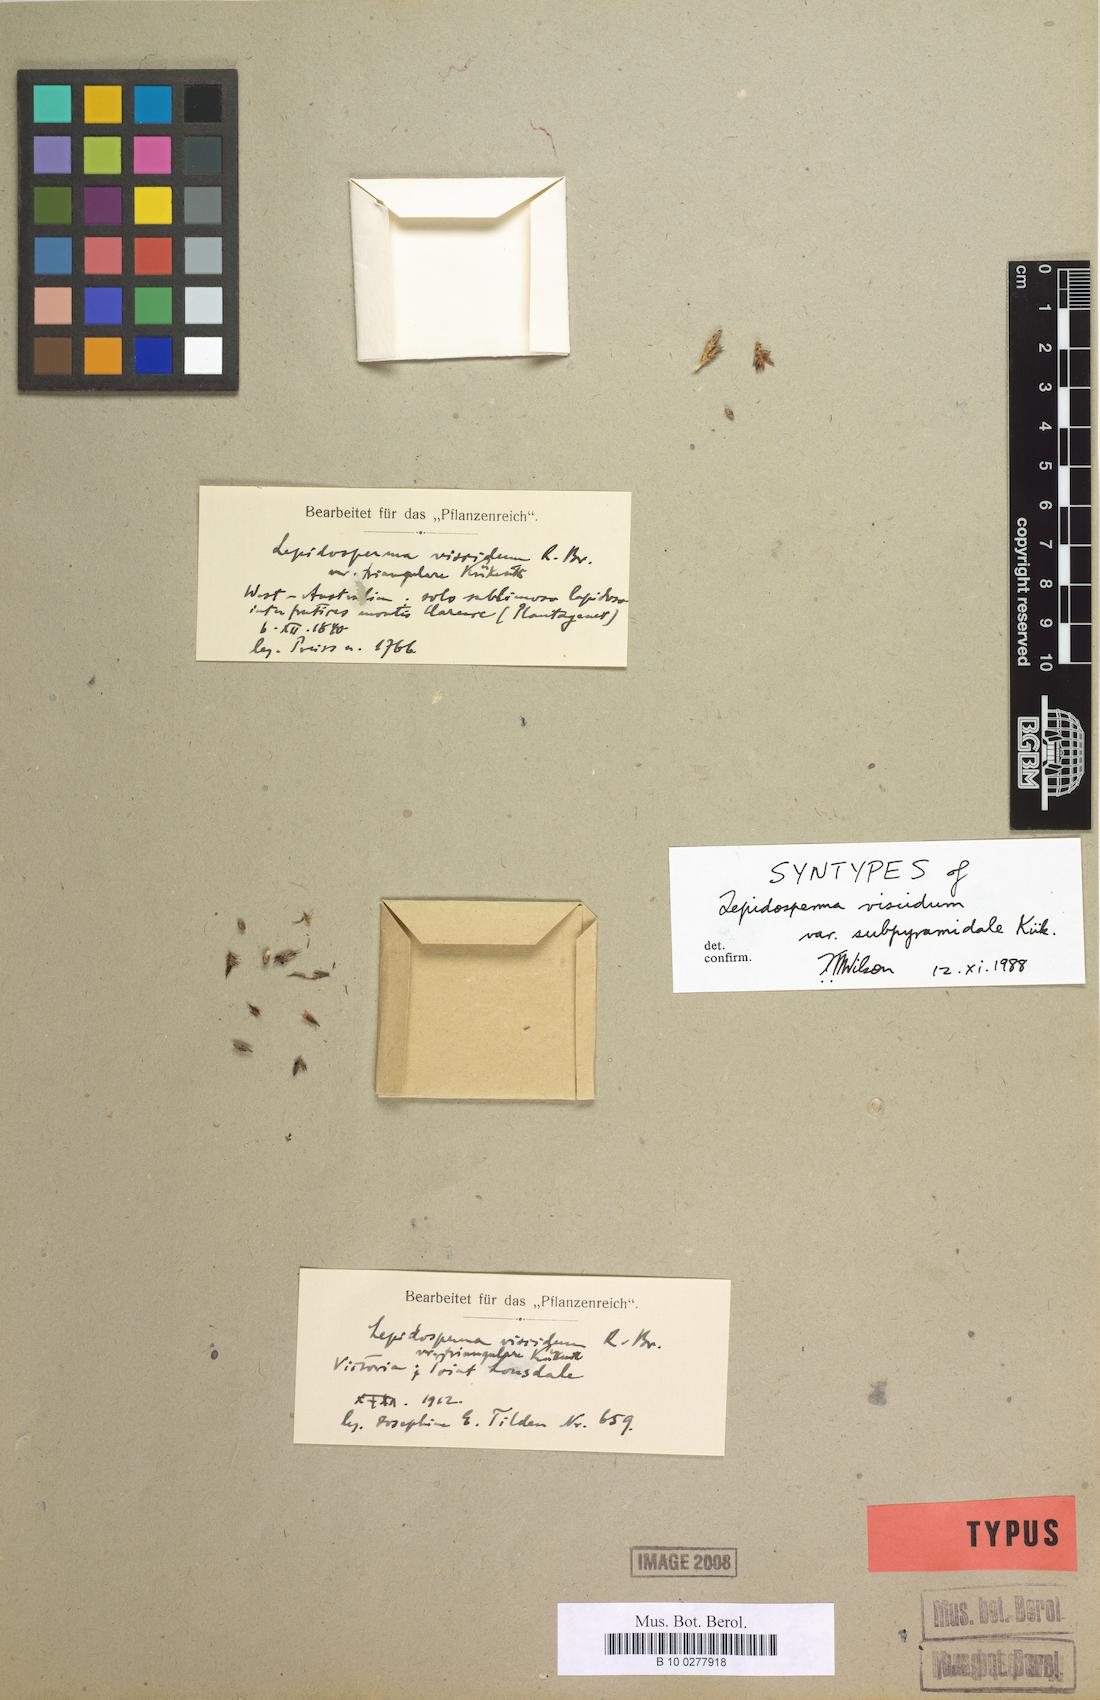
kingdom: Plantae
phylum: Tracheophyta
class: Liliopsida
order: Poales
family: Cyperaceae
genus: Lepidosperma
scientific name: Lepidosperma sieberi
